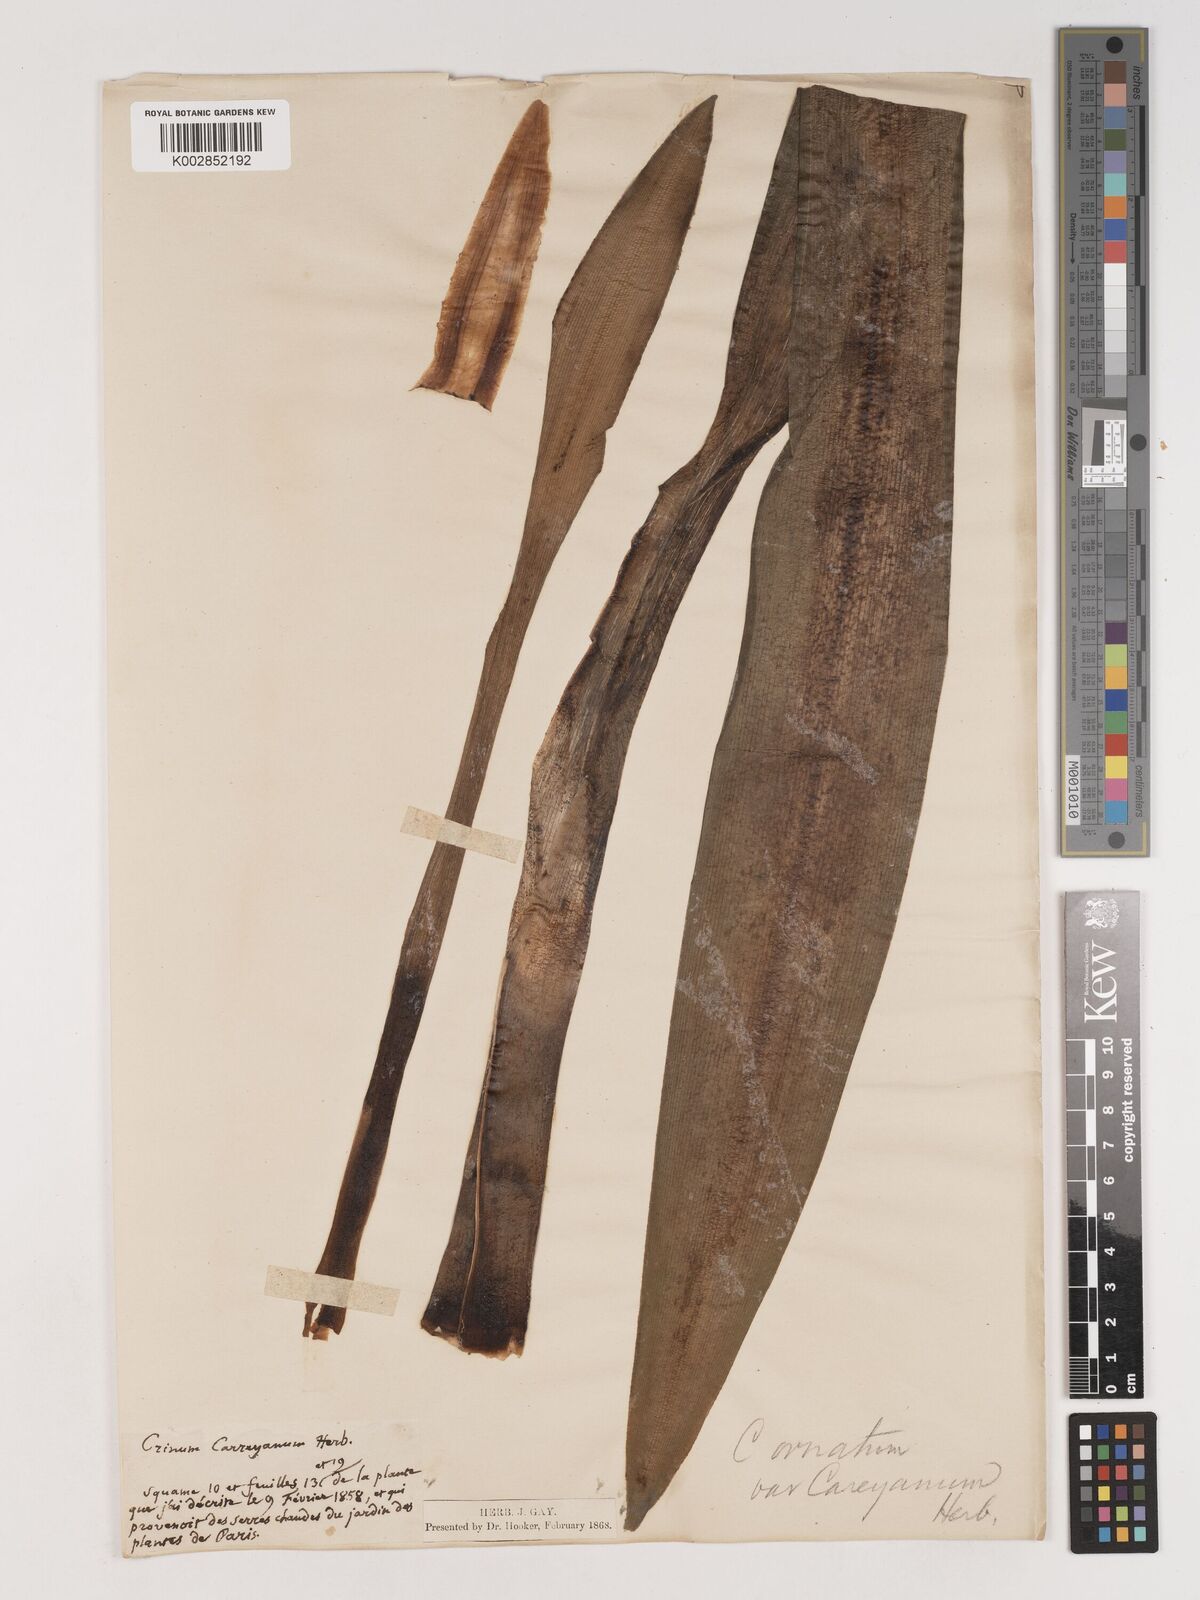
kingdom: Plantae
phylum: Tracheophyta
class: Liliopsida
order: Asparagales
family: Amaryllidaceae
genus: Crinum
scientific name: Crinum latifolium
